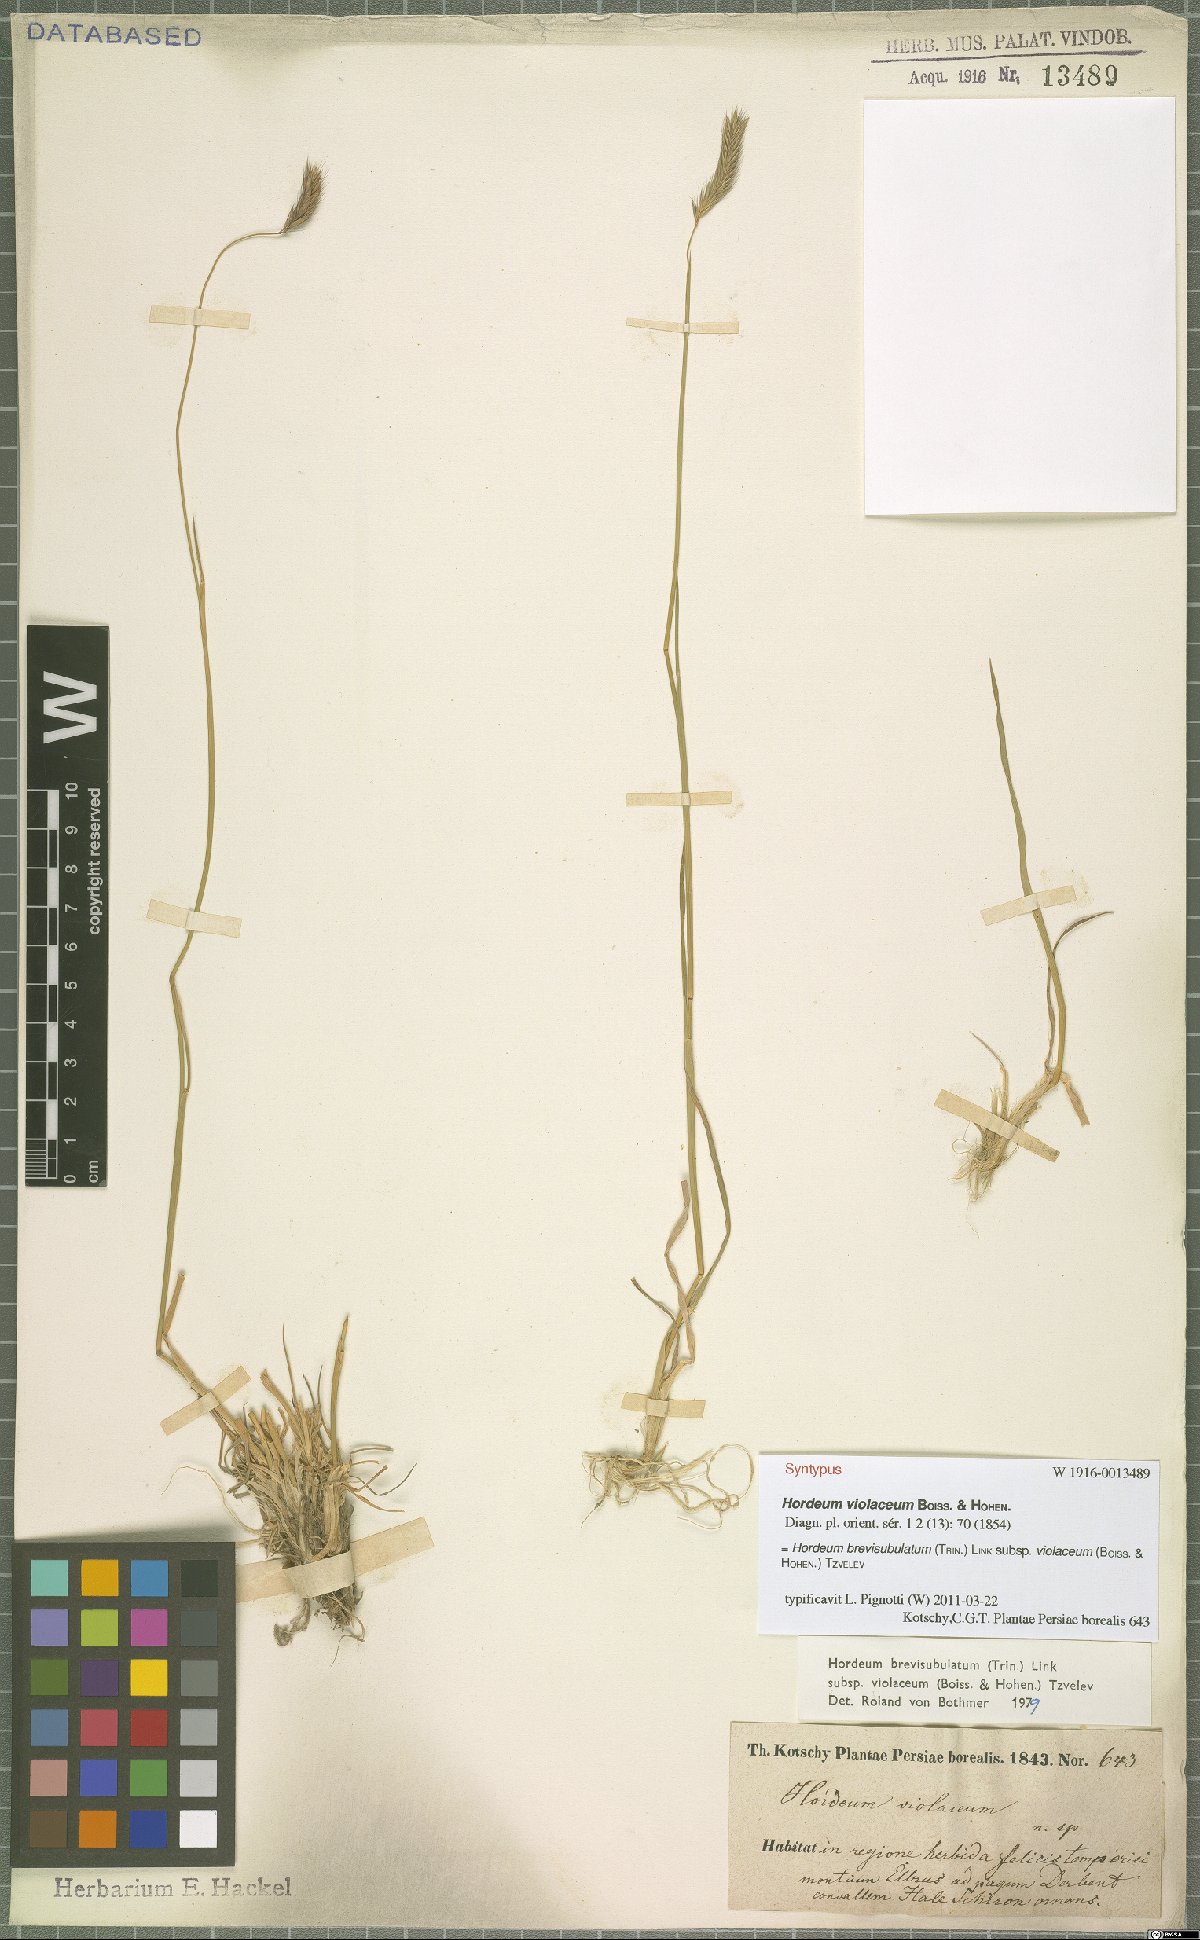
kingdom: Plantae
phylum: Tracheophyta
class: Liliopsida
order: Poales
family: Poaceae
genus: Hordeum
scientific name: Hordeum brevisubulatum
